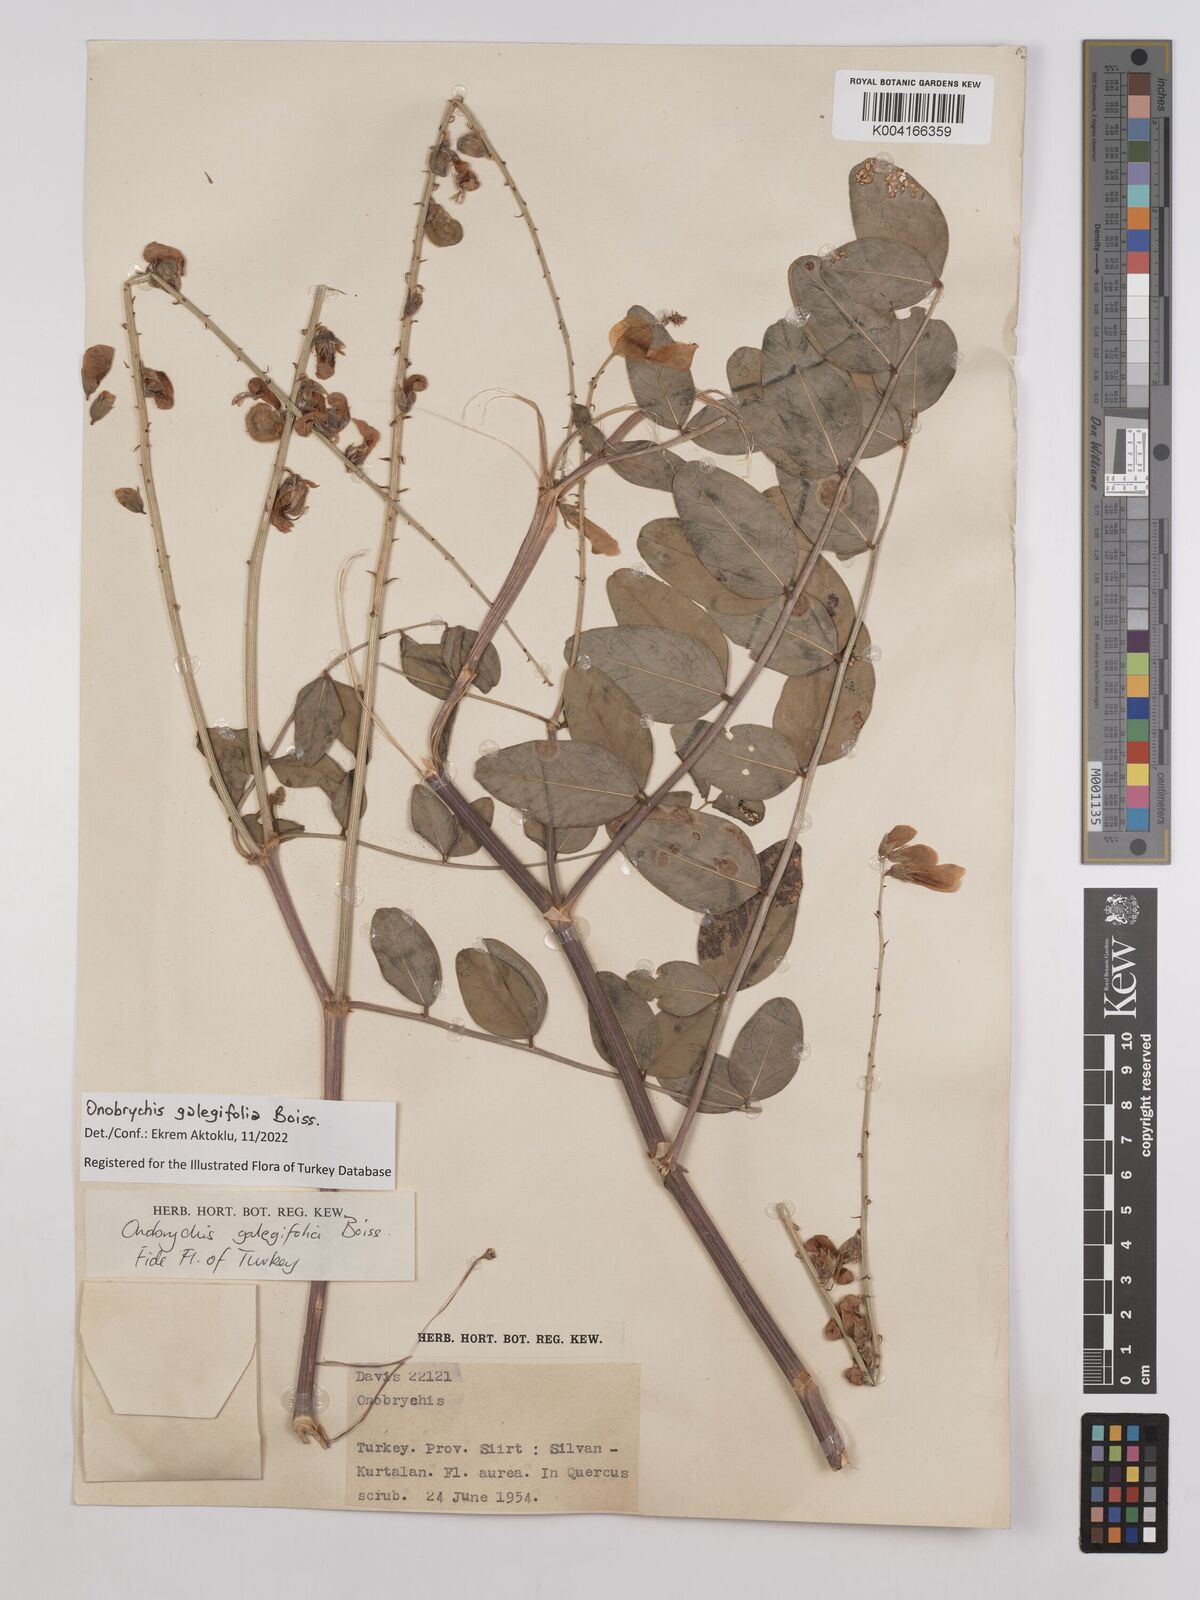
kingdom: Plantae
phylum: Tracheophyta
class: Magnoliopsida
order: Fabales
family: Fabaceae
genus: Onobrychis
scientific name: Onobrychis galegifolia
